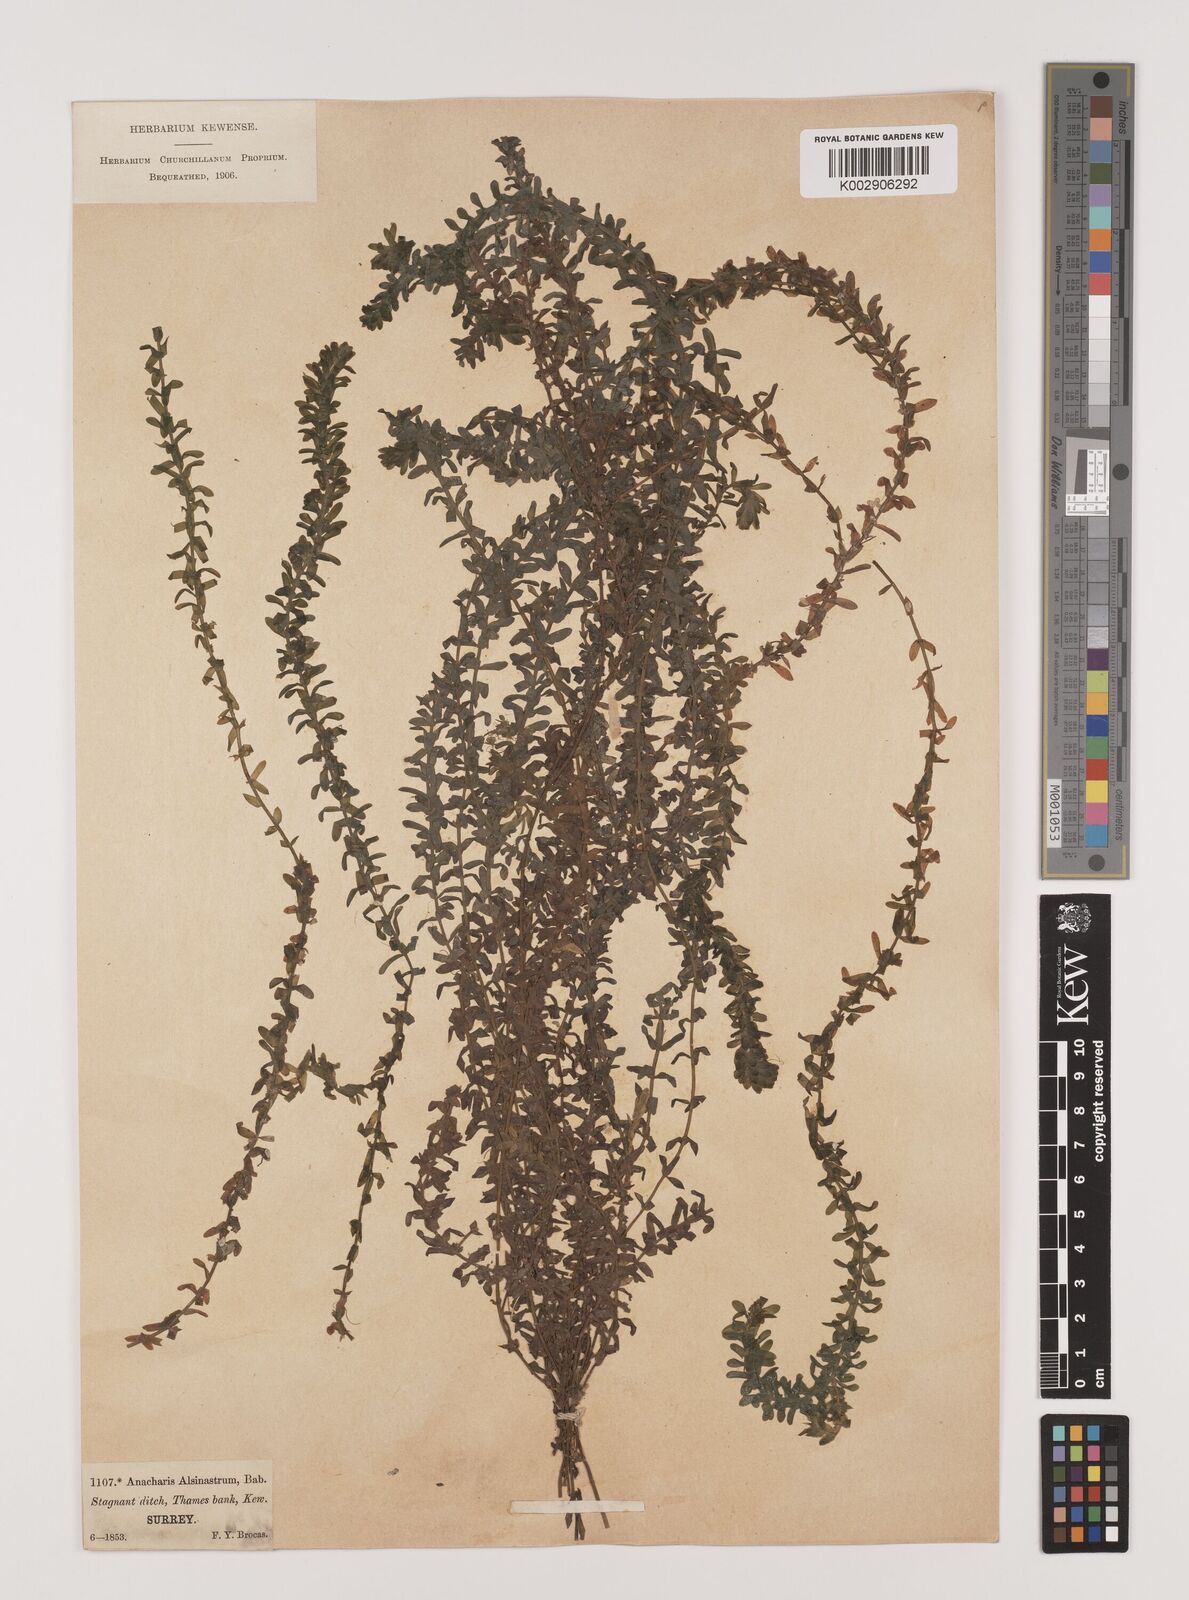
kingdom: Plantae
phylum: Tracheophyta
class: Liliopsida
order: Alismatales
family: Hydrocharitaceae
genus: Elodea
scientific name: Elodea canadensis
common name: Canadian waterweed
